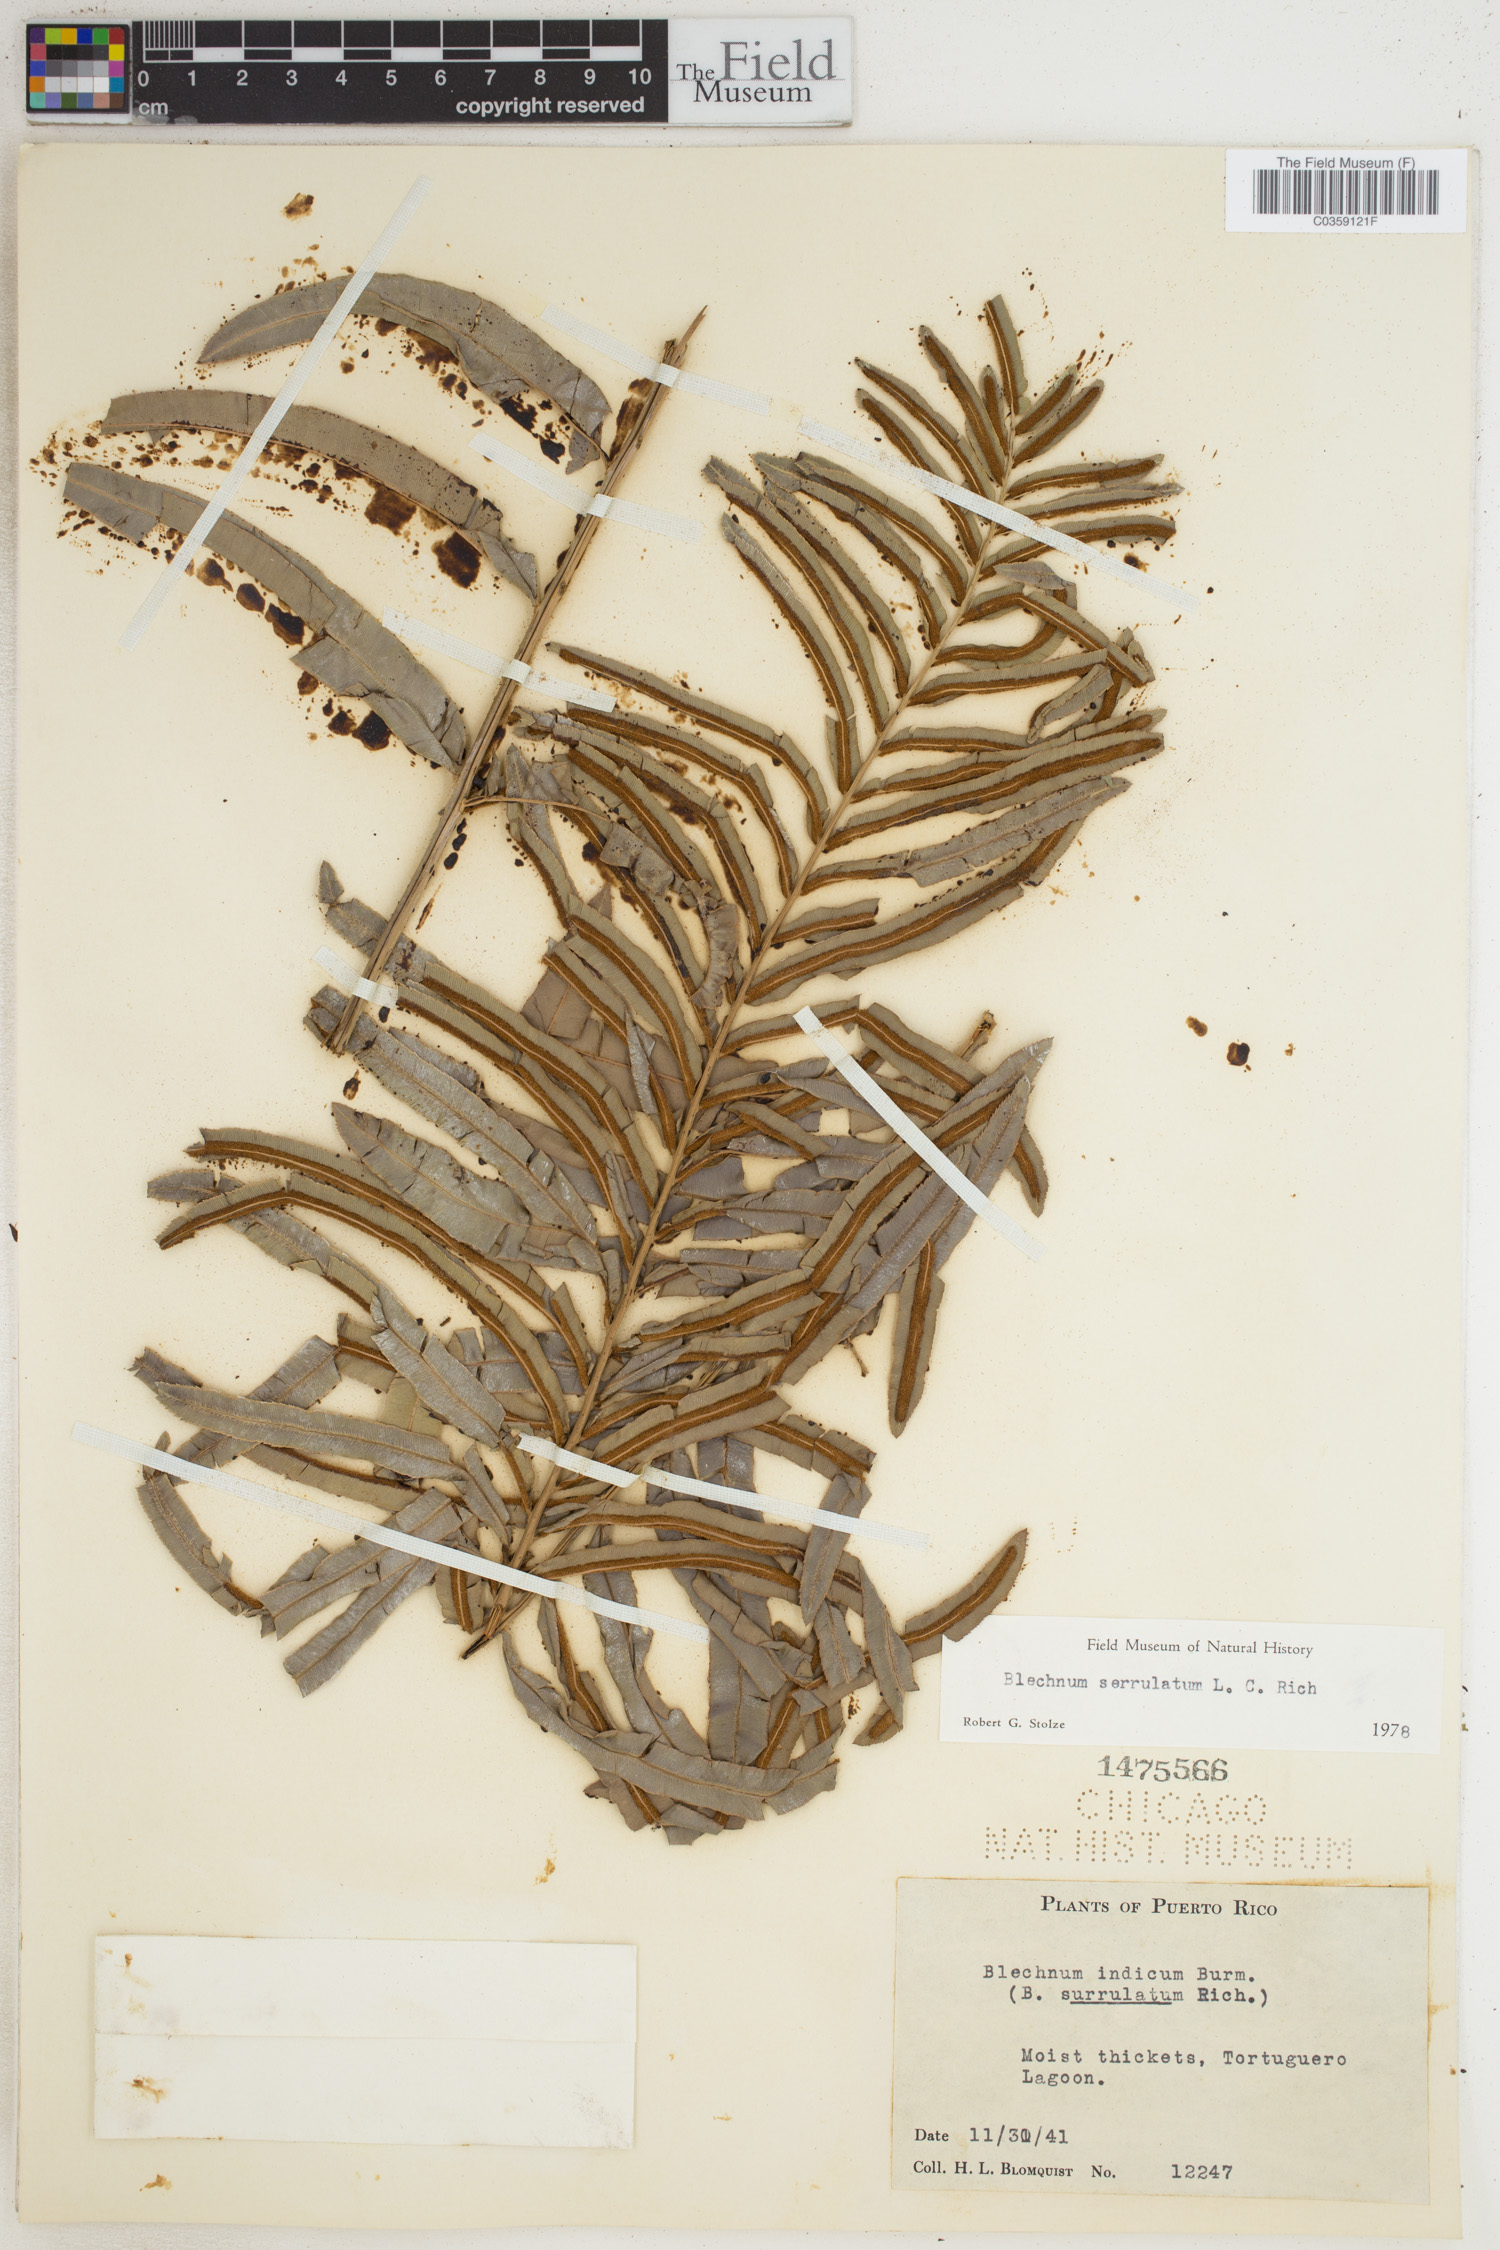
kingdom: Plantae
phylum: Tracheophyta
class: Polypodiopsida
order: Polypodiales
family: Blechnaceae
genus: Telmatoblechnum
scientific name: Telmatoblechnum serrulatum
